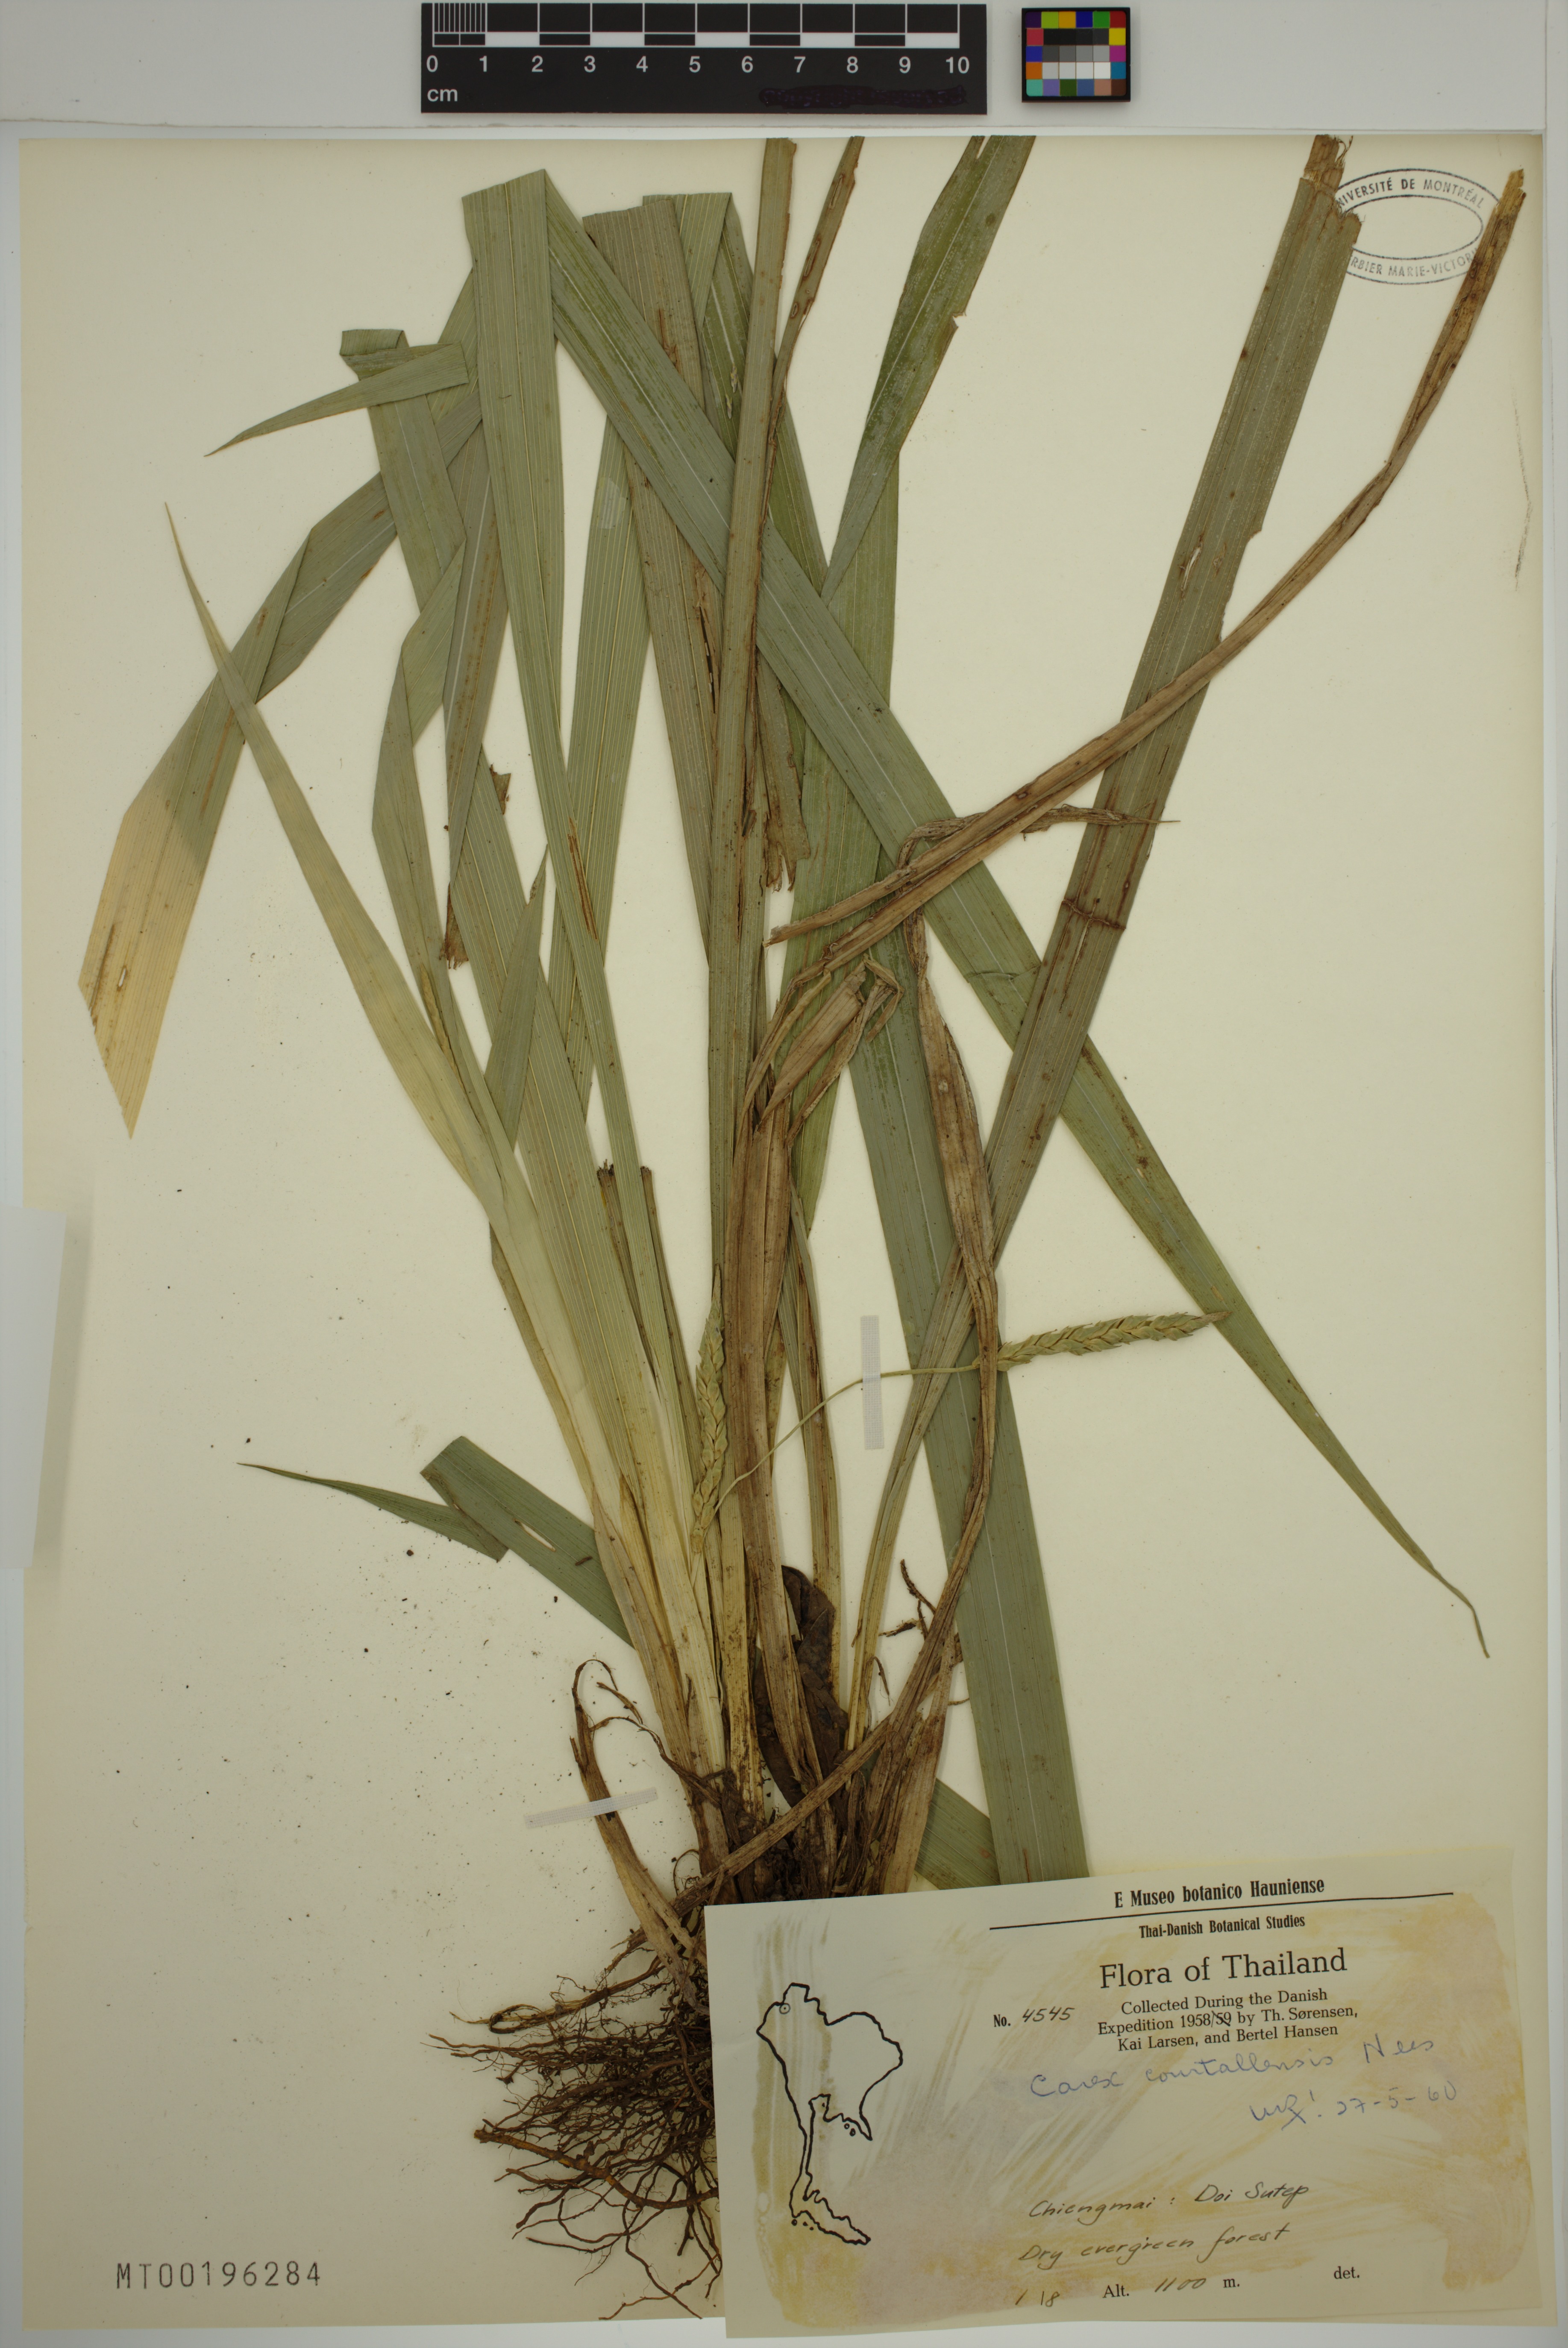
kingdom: Plantae
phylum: Tracheophyta
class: Liliopsida
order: Poales
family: Cyperaceae
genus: Carex
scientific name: Carex courtallensis
